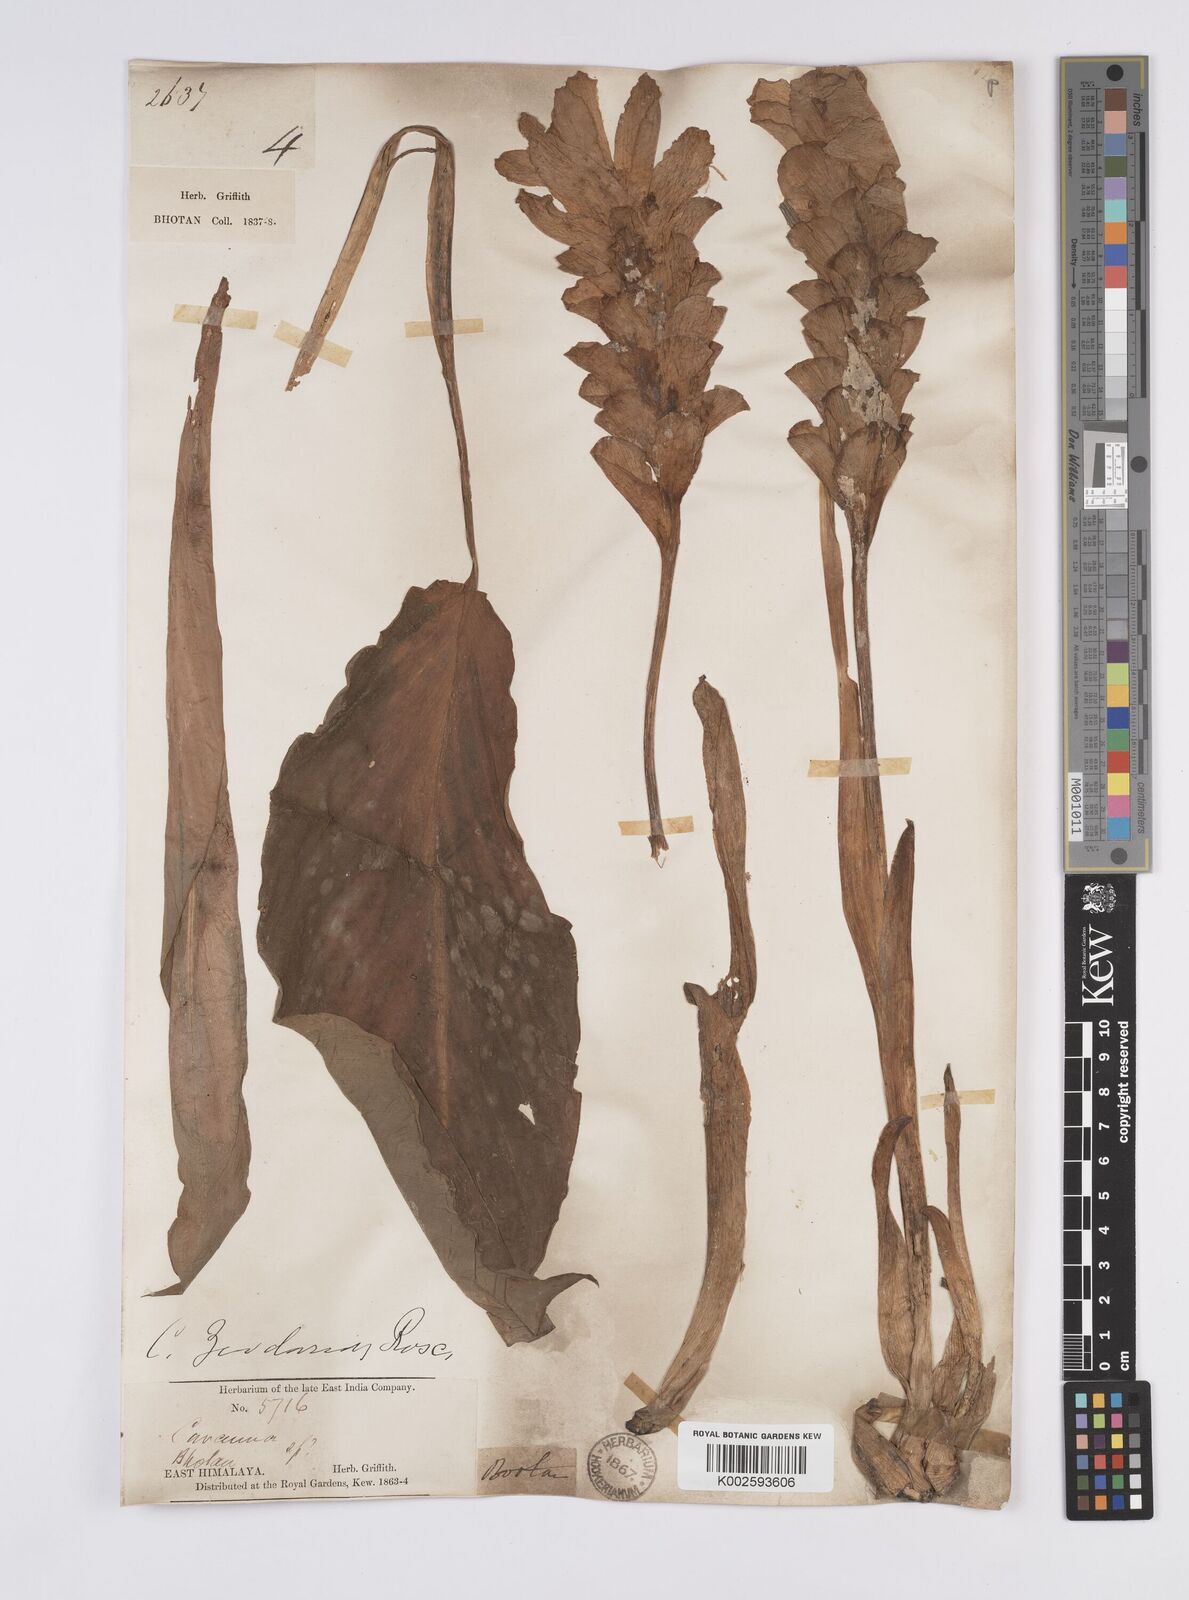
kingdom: Plantae
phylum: Tracheophyta
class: Liliopsida
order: Zingiberales
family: Zingiberaceae
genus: Curcuma
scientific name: Curcuma aromatica
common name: Wild turmeric
